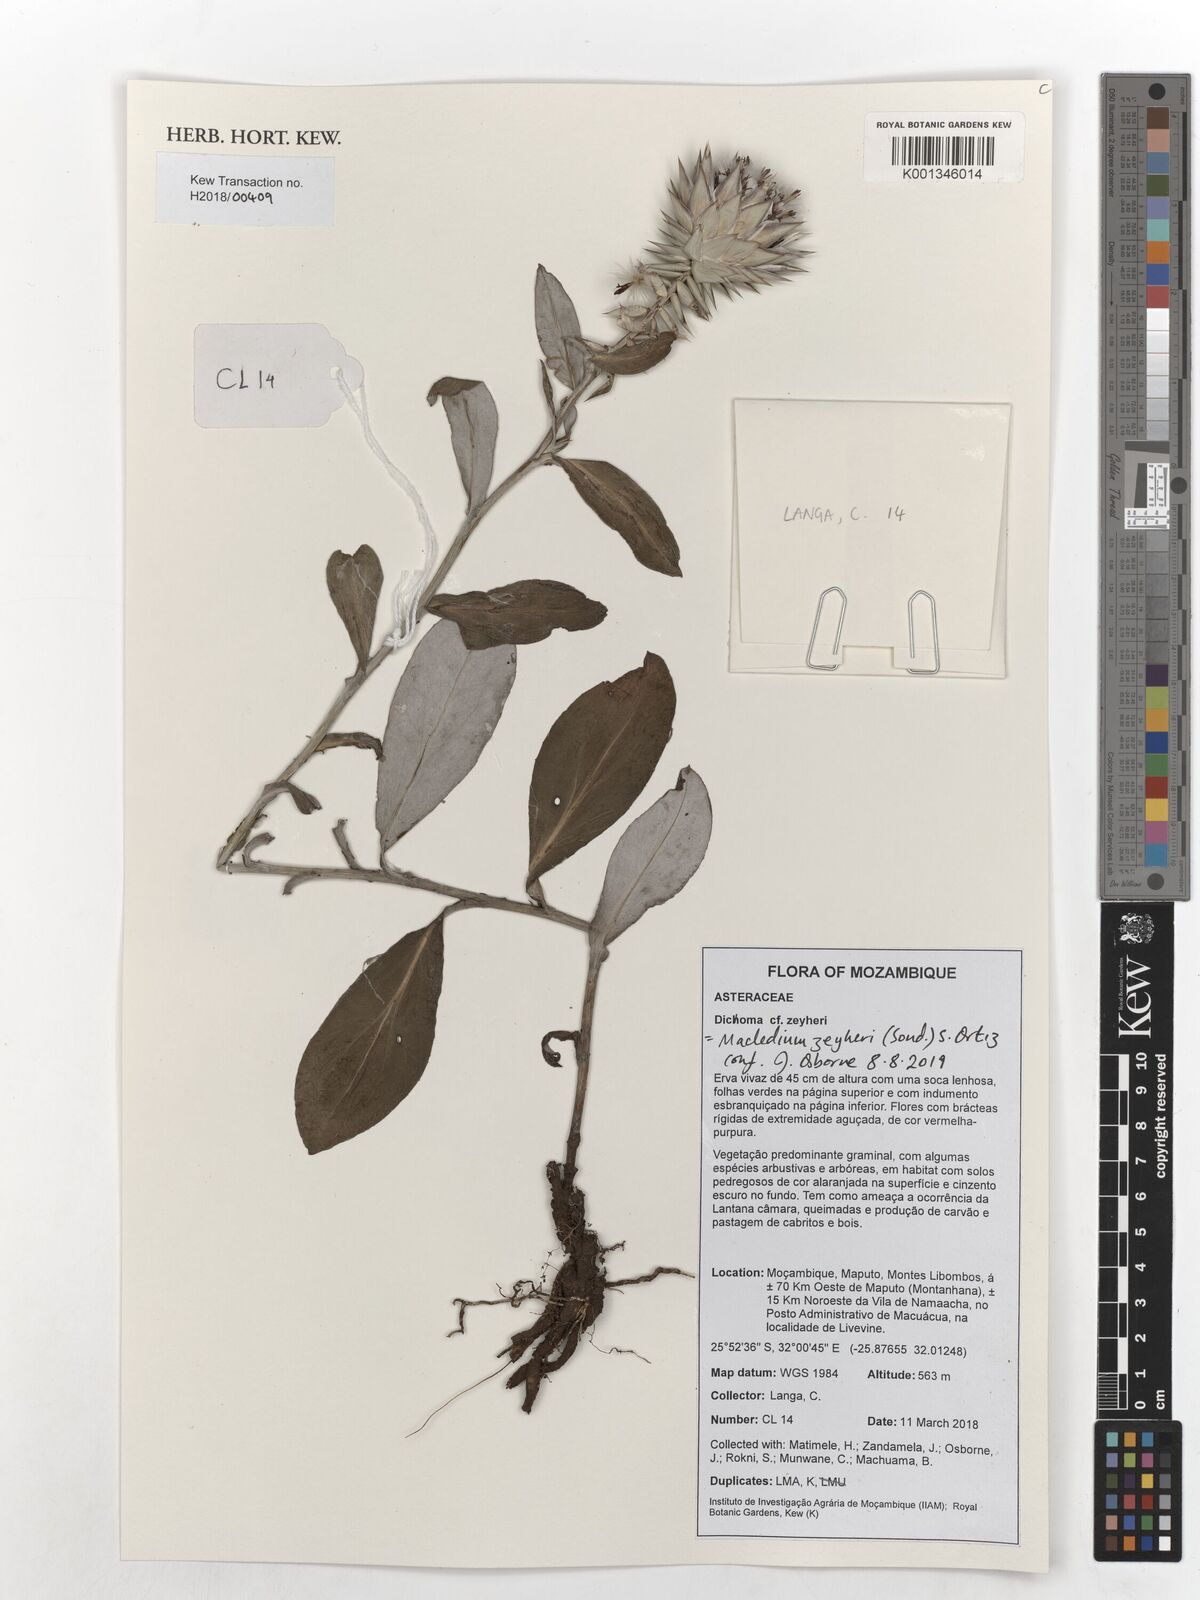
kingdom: Plantae
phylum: Tracheophyta
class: Magnoliopsida
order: Asterales
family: Asteraceae
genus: Macledium
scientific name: Macledium zeyheri
